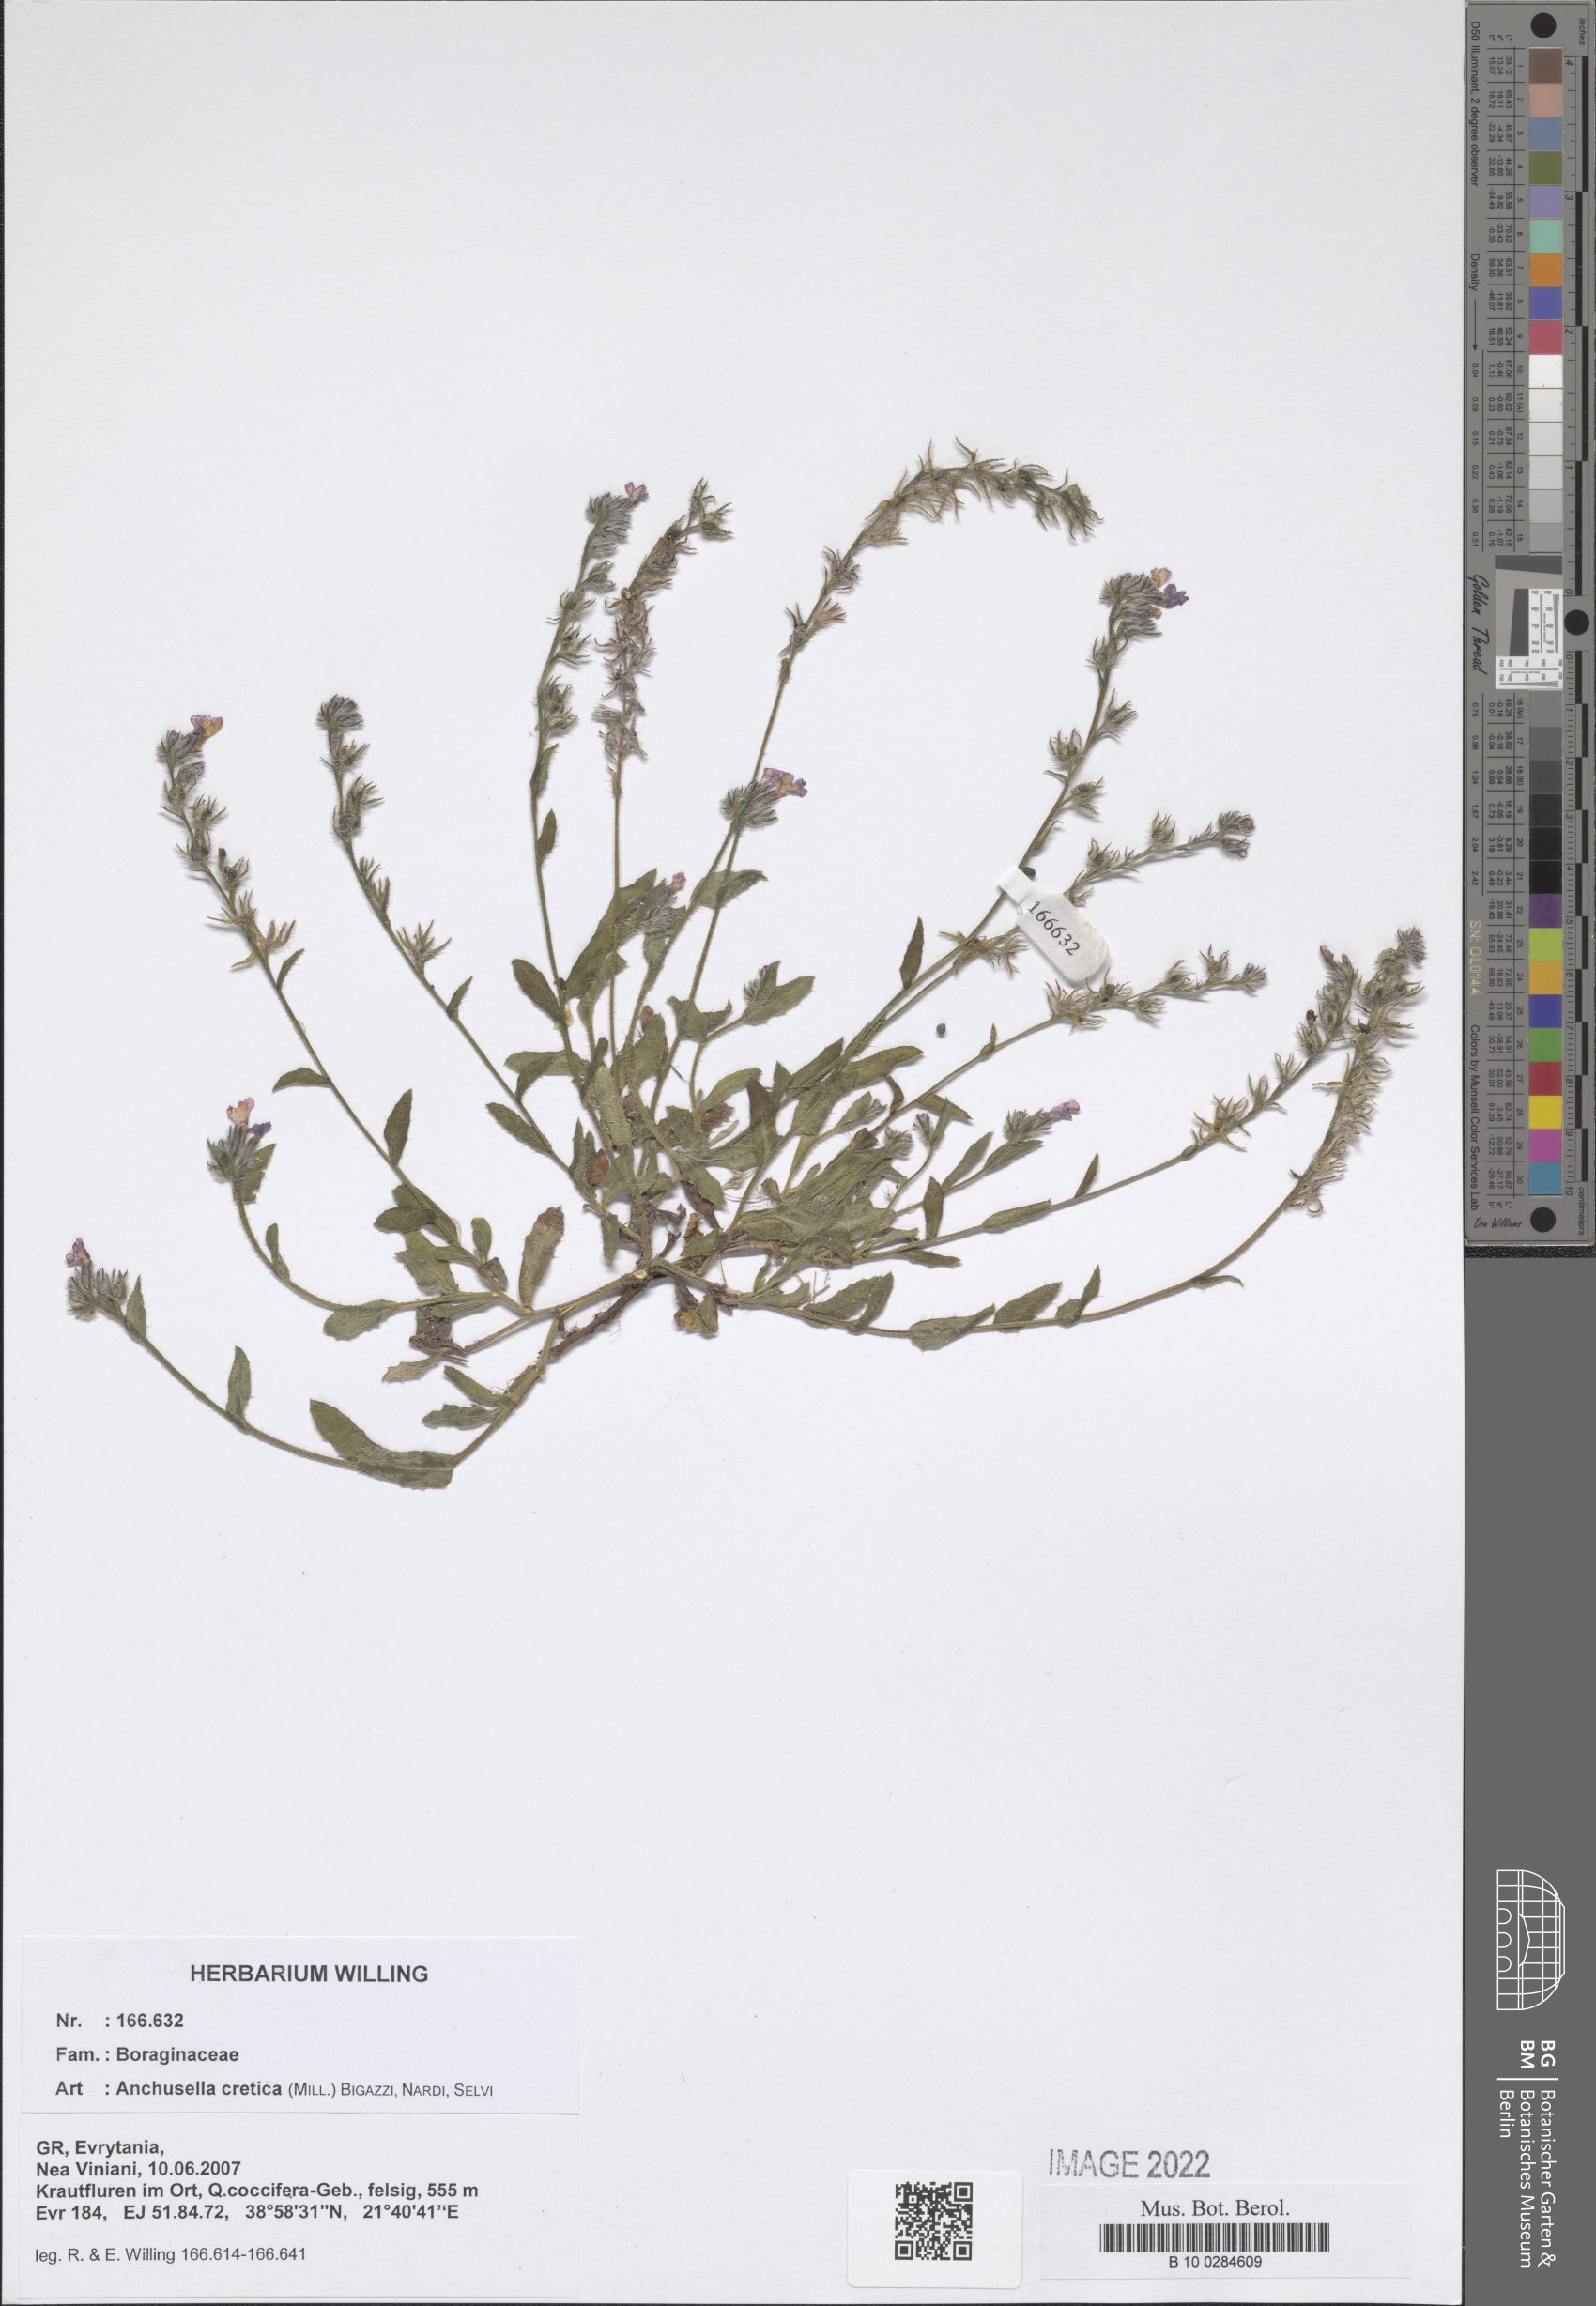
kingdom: Plantae
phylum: Tracheophyta
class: Magnoliopsida
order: Boraginales
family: Boraginaceae
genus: Lycopsis
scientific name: Lycopsis arvensis
